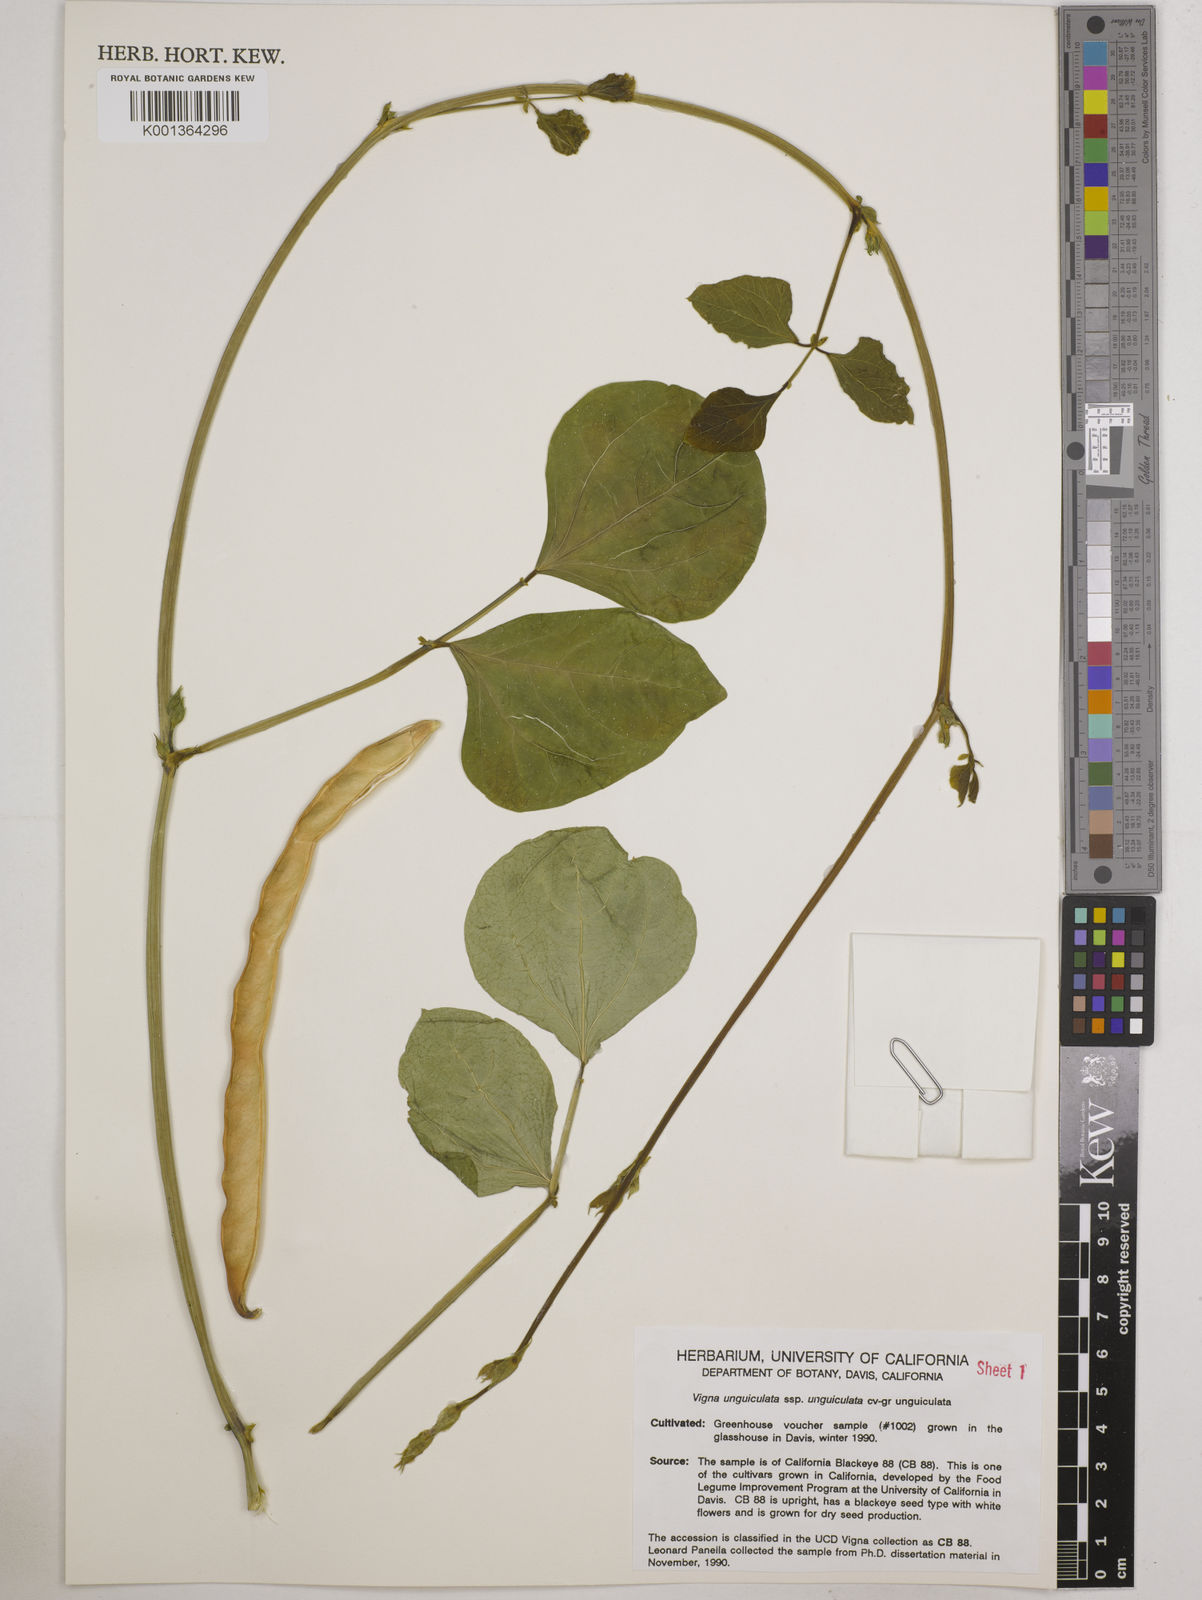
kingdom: Plantae
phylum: Tracheophyta
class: Magnoliopsida
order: Fabales
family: Fabaceae
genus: Vigna
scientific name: Vigna
